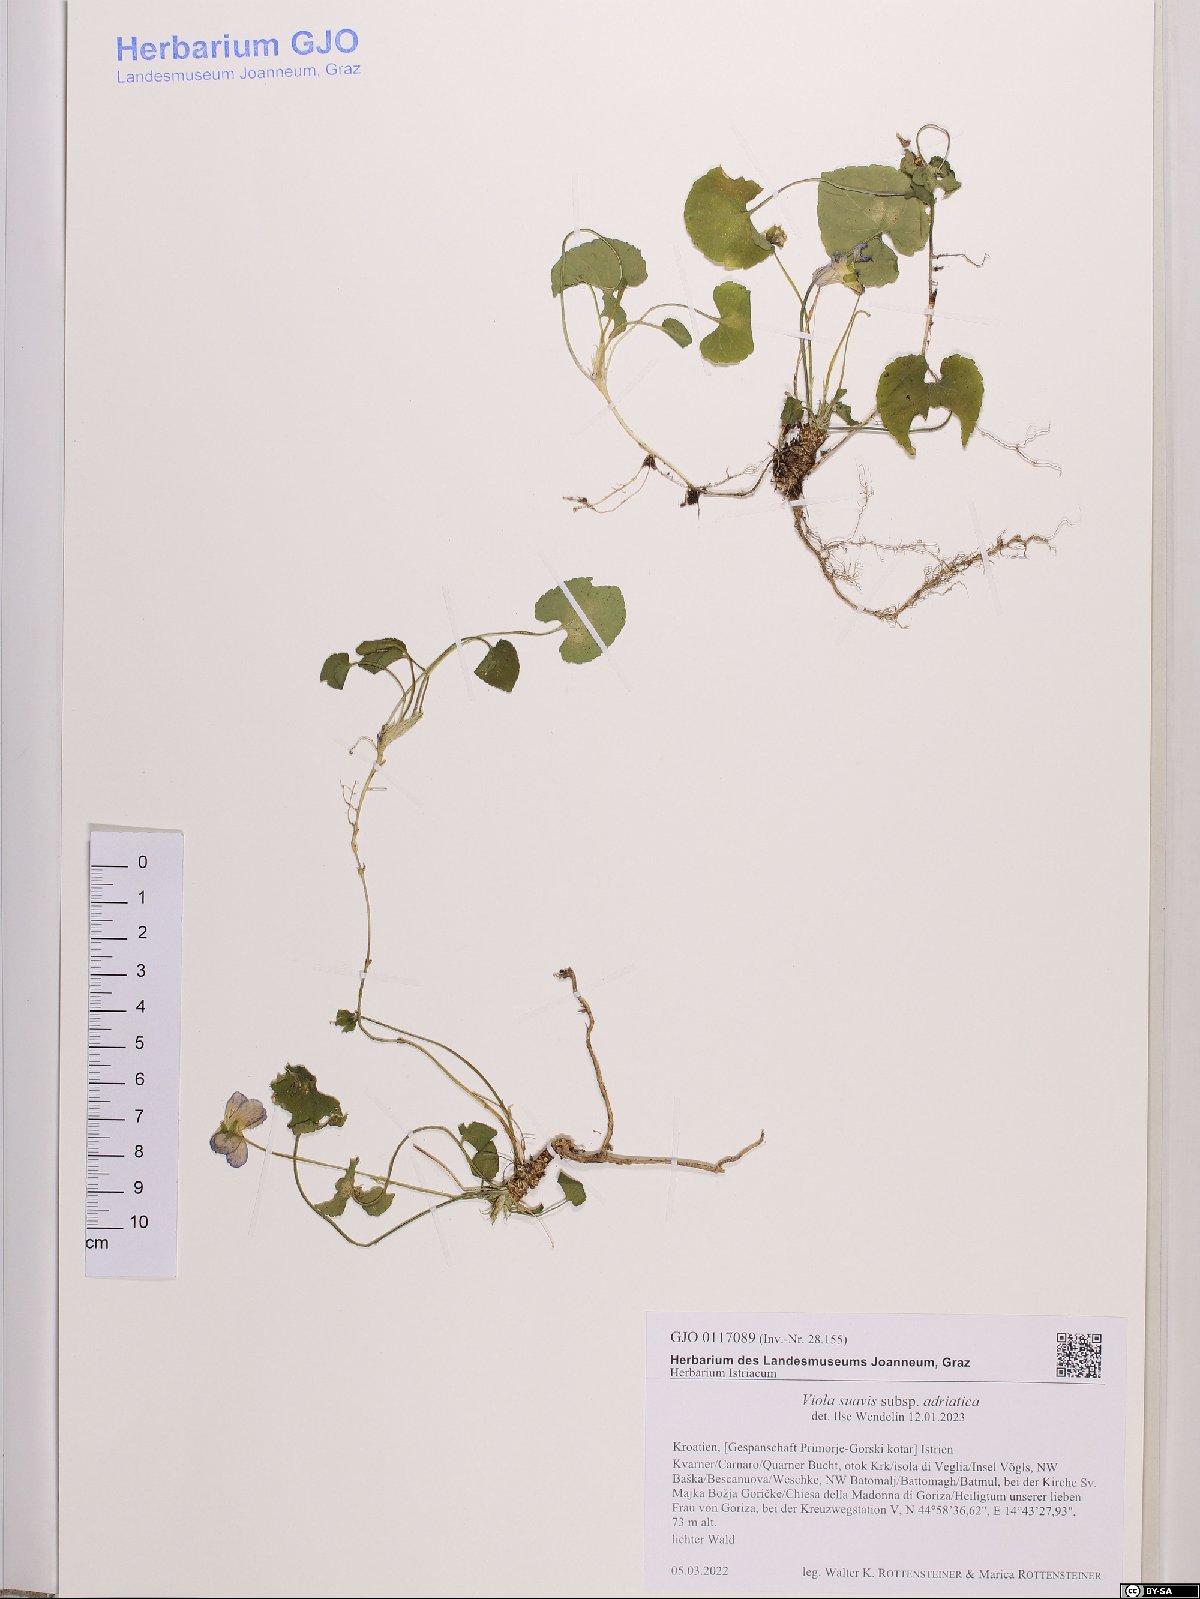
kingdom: Plantae
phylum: Tracheophyta
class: Magnoliopsida
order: Malpighiales
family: Violaceae
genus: Viola
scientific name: Viola suavis
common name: Russian violet
